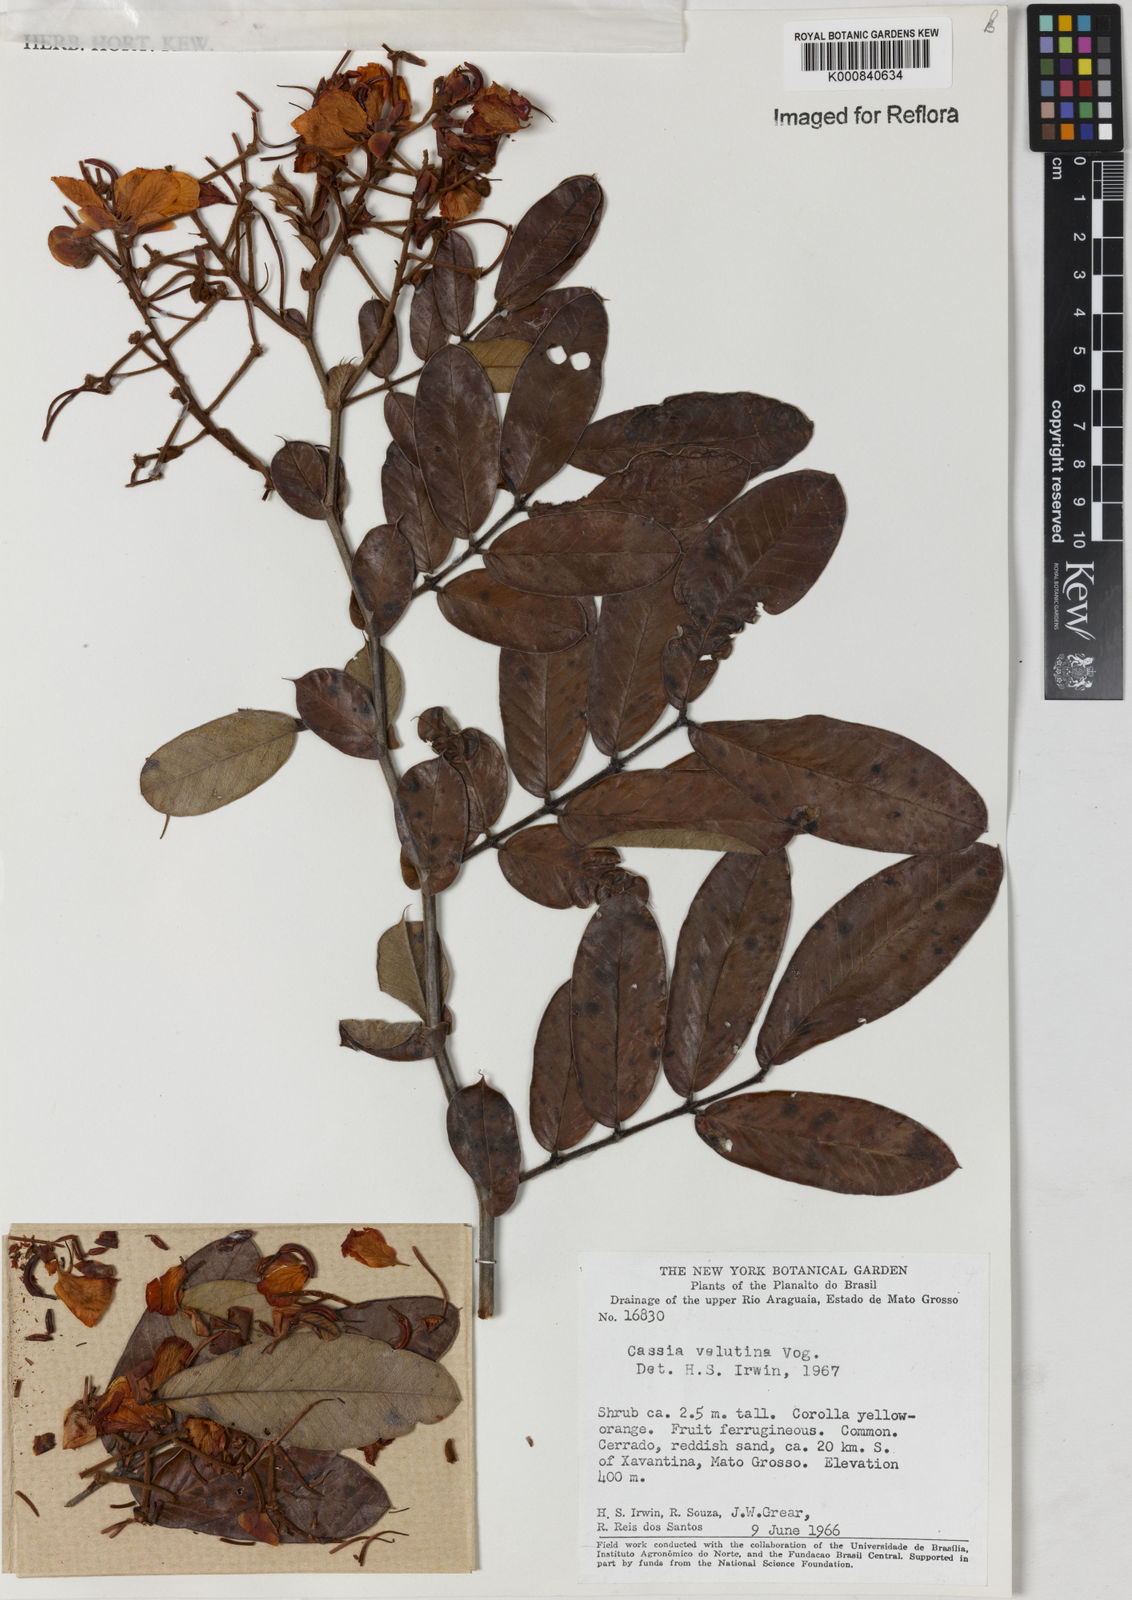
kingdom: Plantae
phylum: Tracheophyta
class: Magnoliopsida
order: Fabales
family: Fabaceae
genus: Senna
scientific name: Senna velutina
